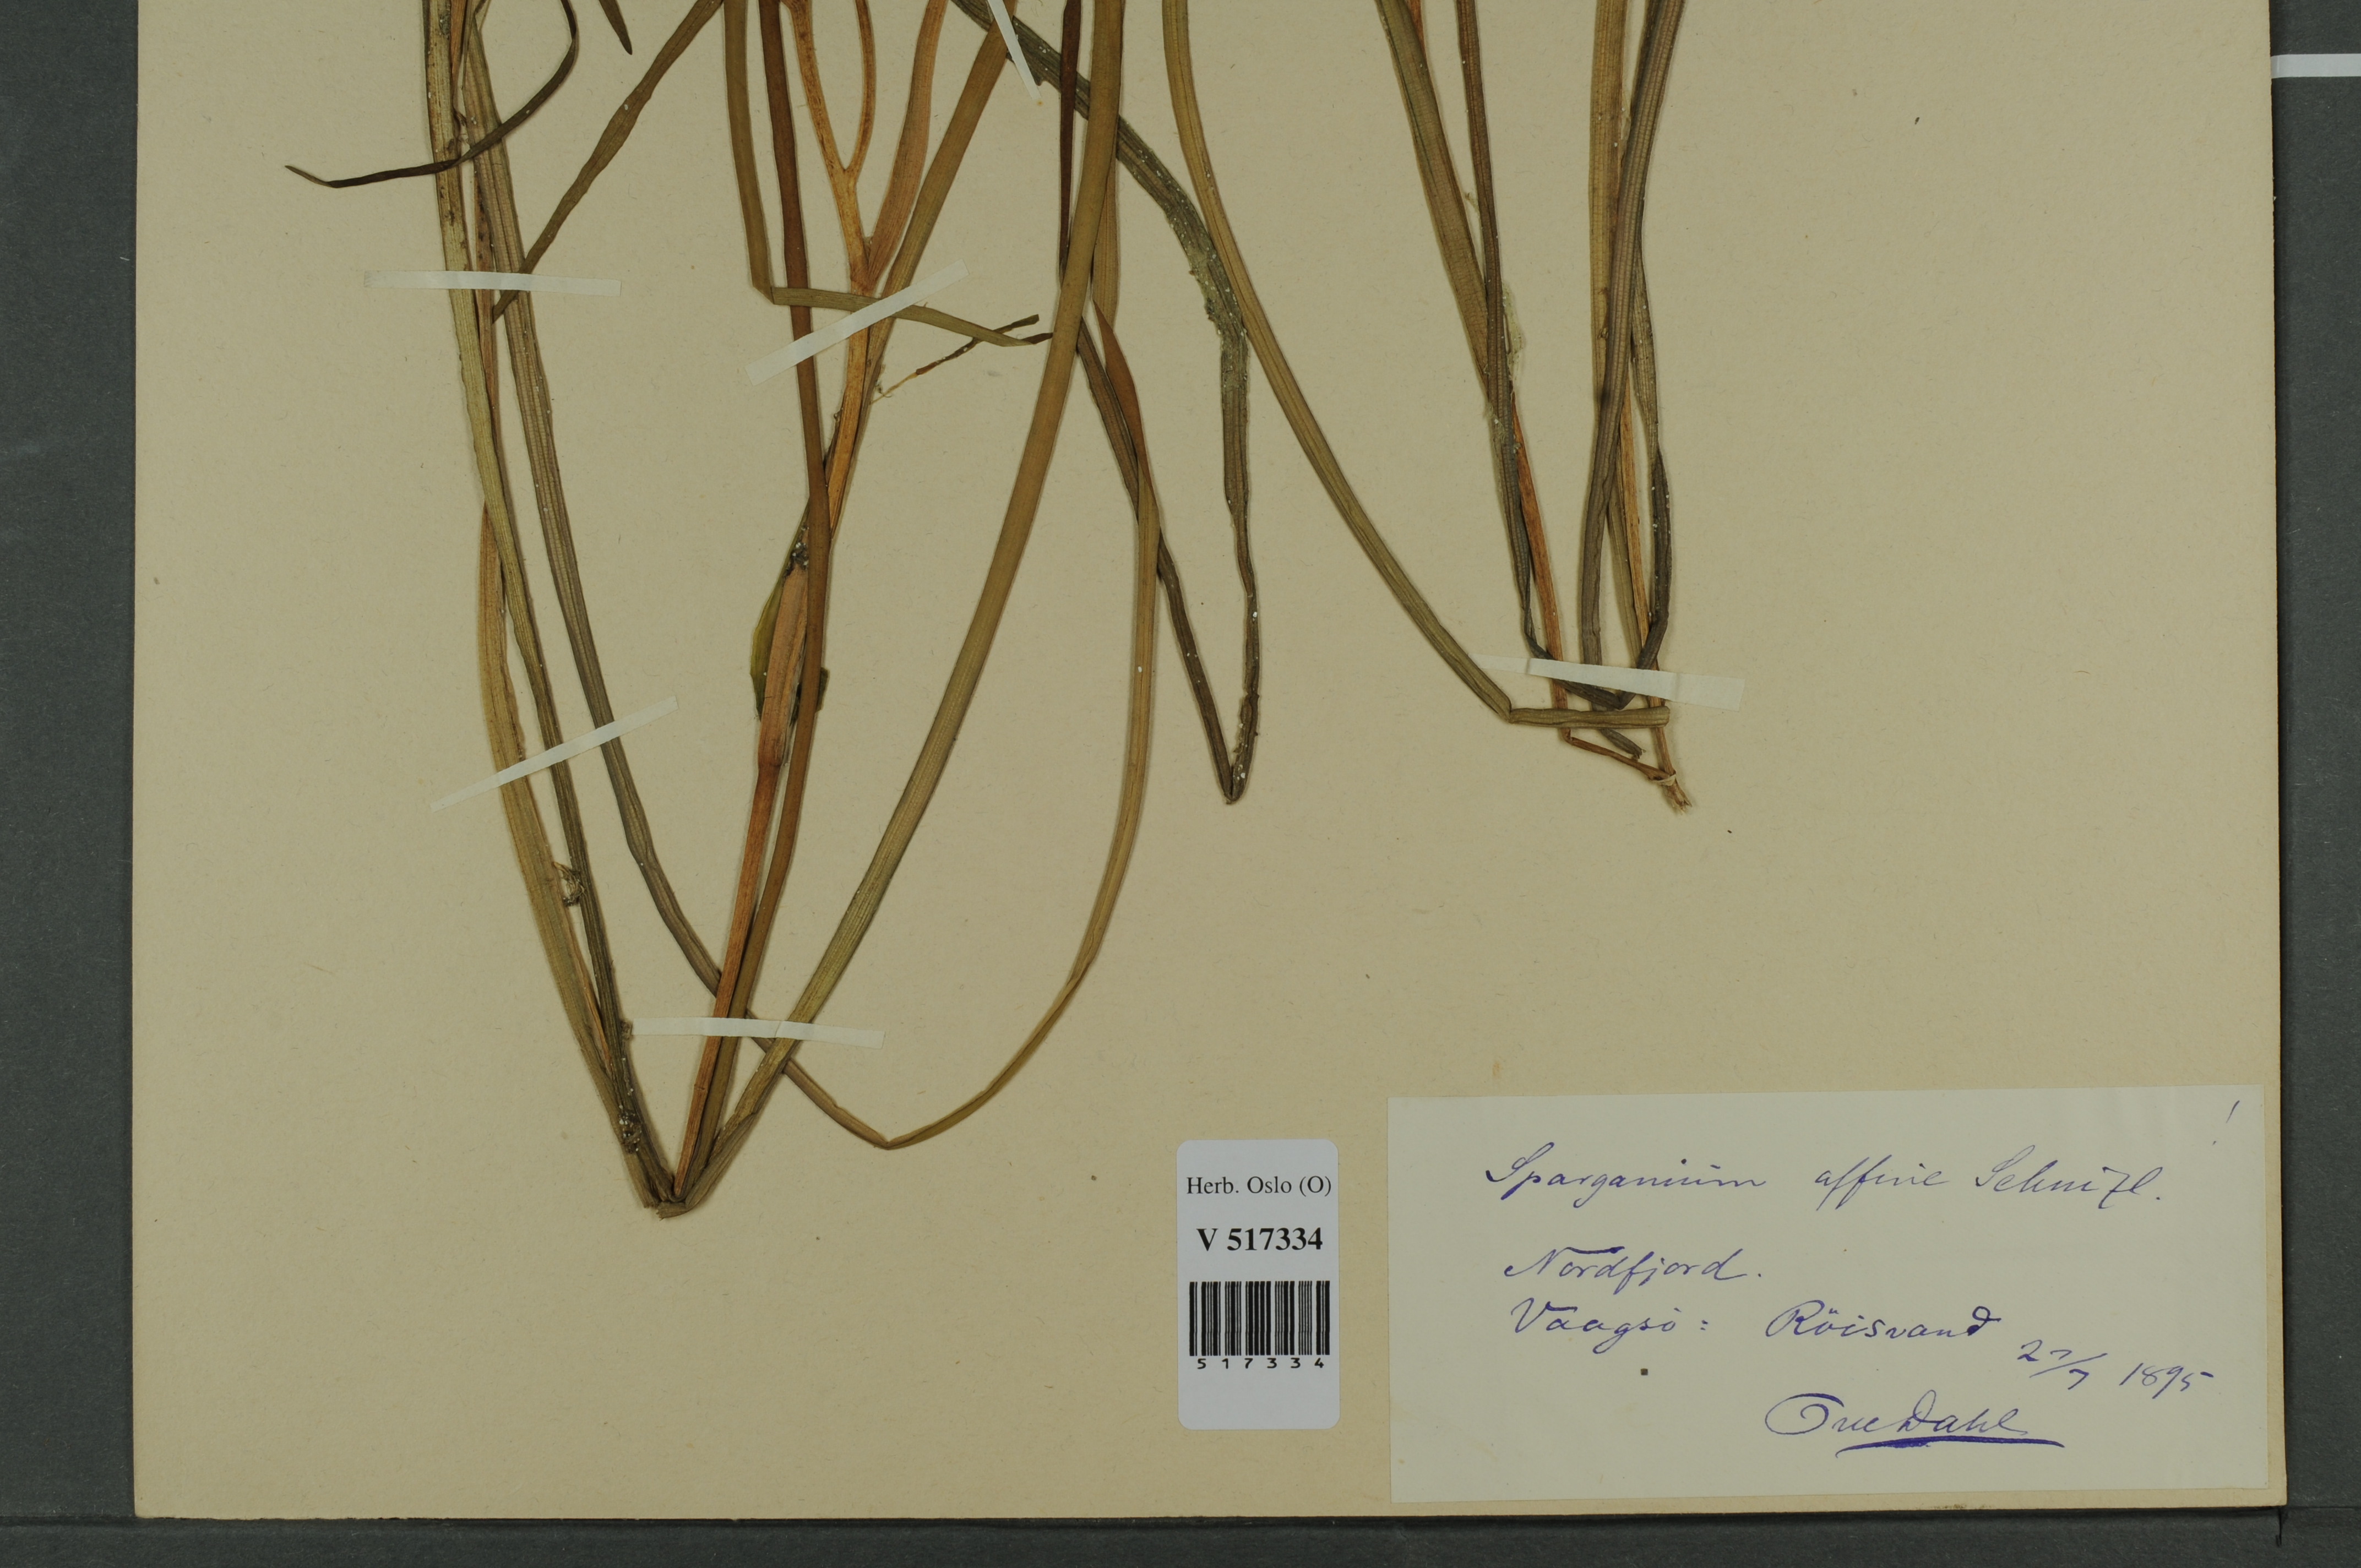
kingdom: Plantae
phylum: Tracheophyta
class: Liliopsida
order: Poales
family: Typhaceae
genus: Sparganium
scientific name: Sparganium angustifolium
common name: Floating bur-reed
